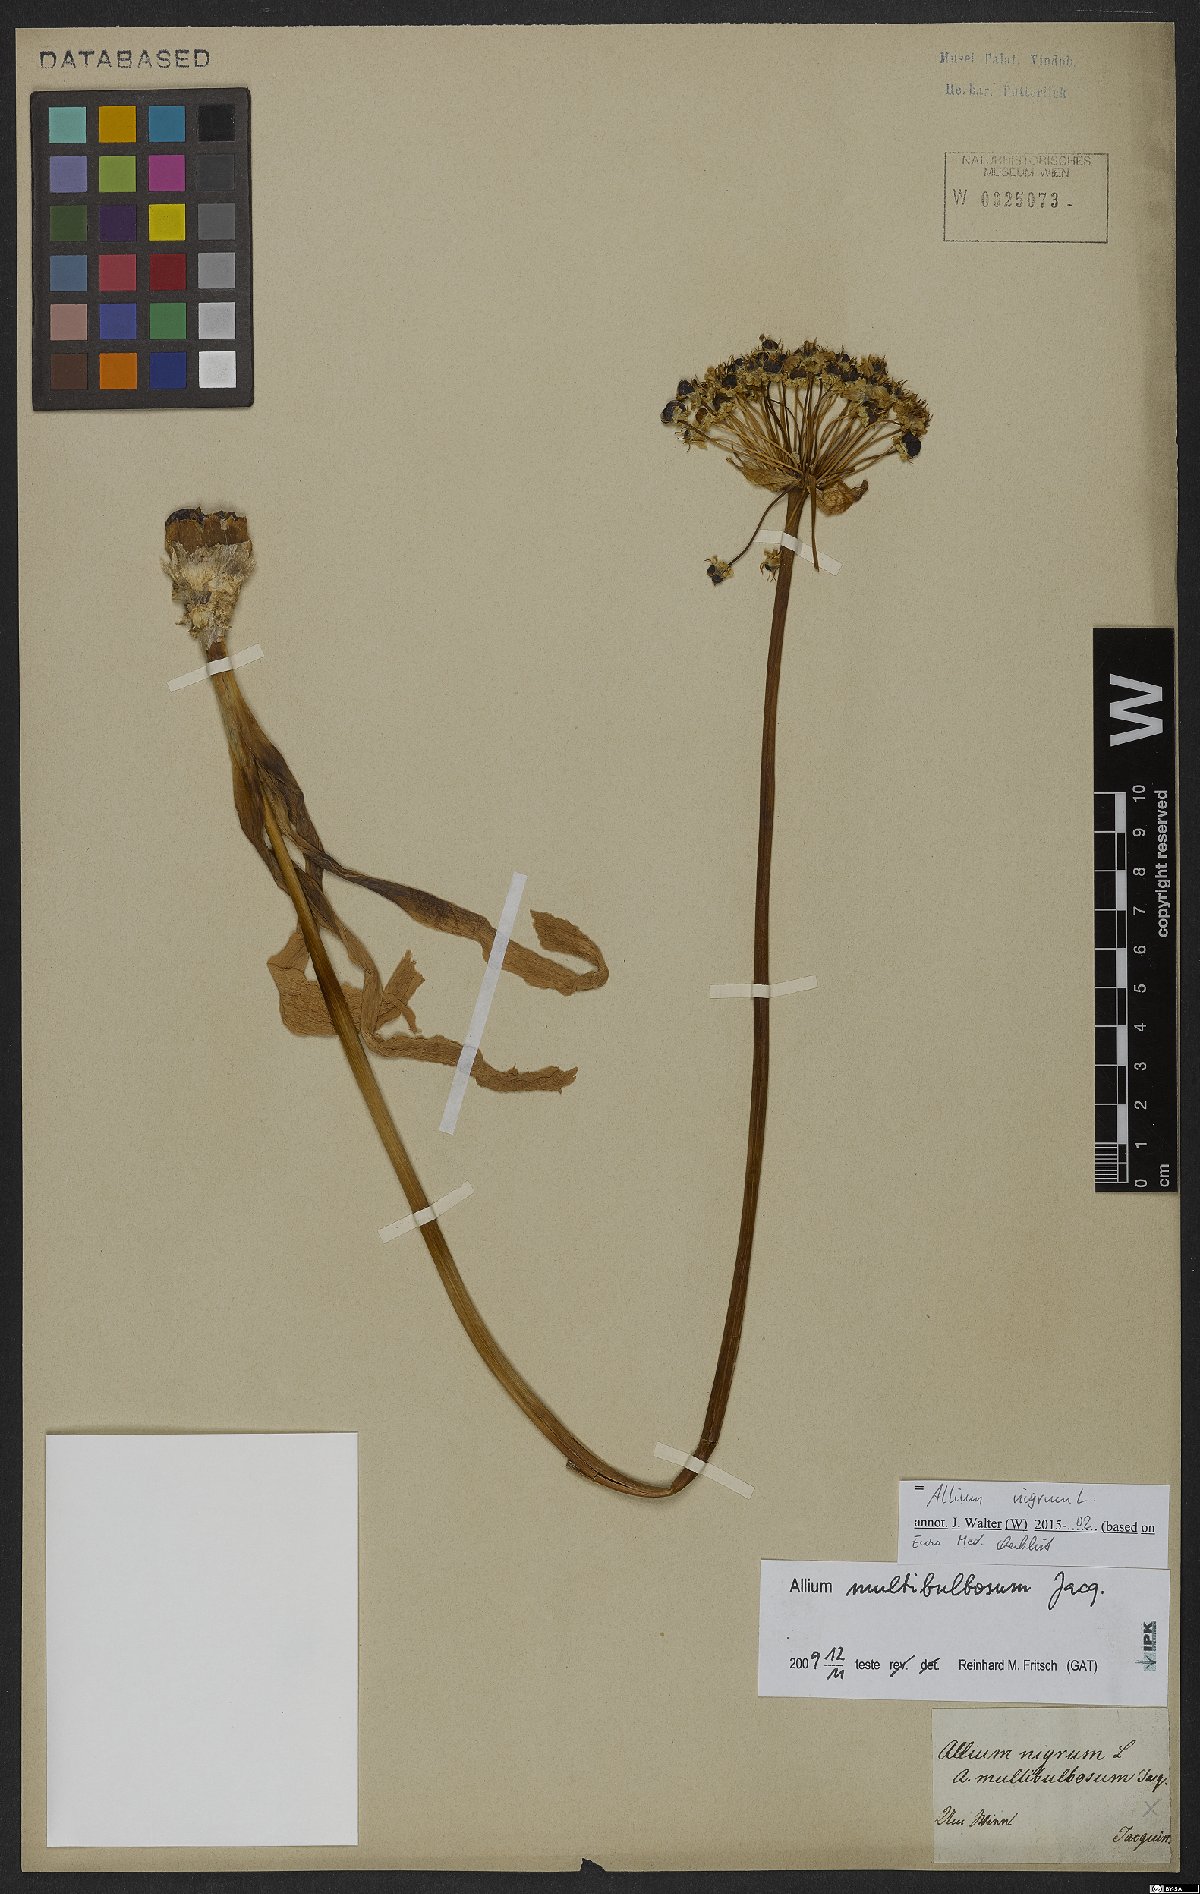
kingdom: Plantae
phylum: Tracheophyta
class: Liliopsida
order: Asparagales
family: Amaryllidaceae
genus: Allium
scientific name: Allium nigrum
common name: Black garlic
